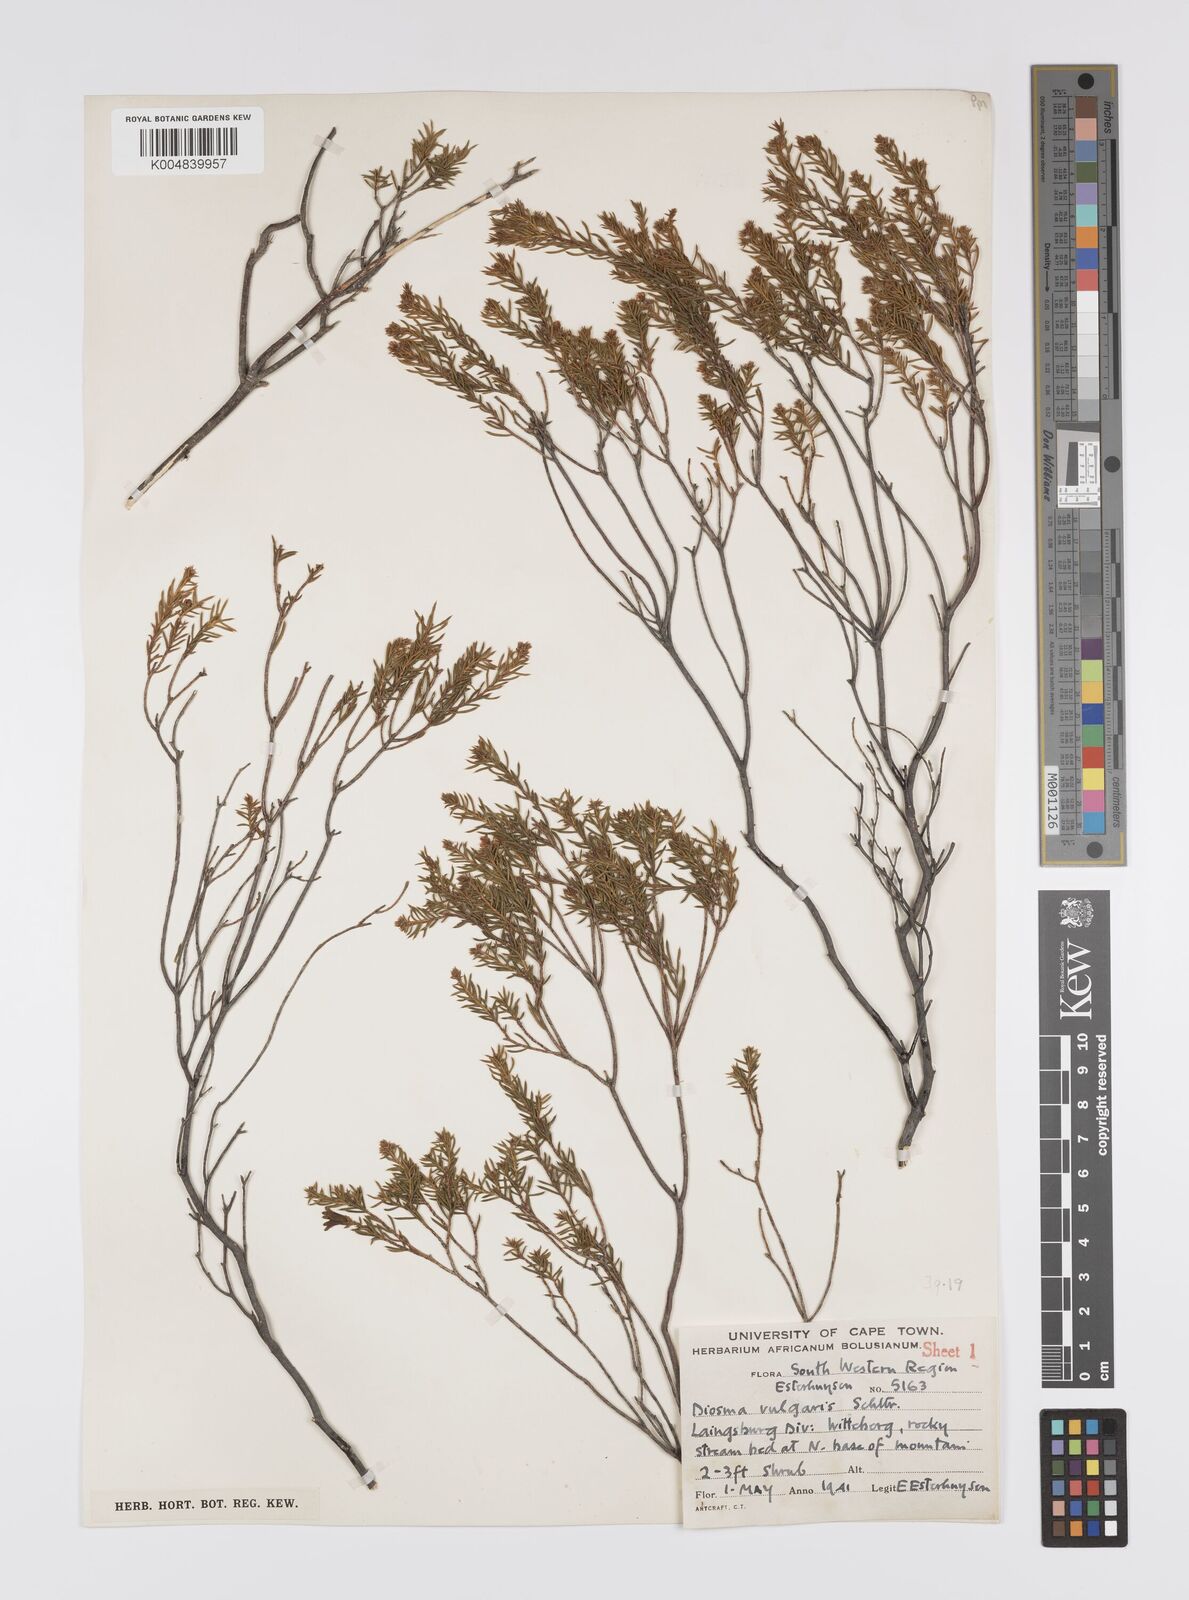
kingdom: Plantae
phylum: Tracheophyta
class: Magnoliopsida
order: Sapindales
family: Rutaceae
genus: Diosma
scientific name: Diosma acmaeophylla
